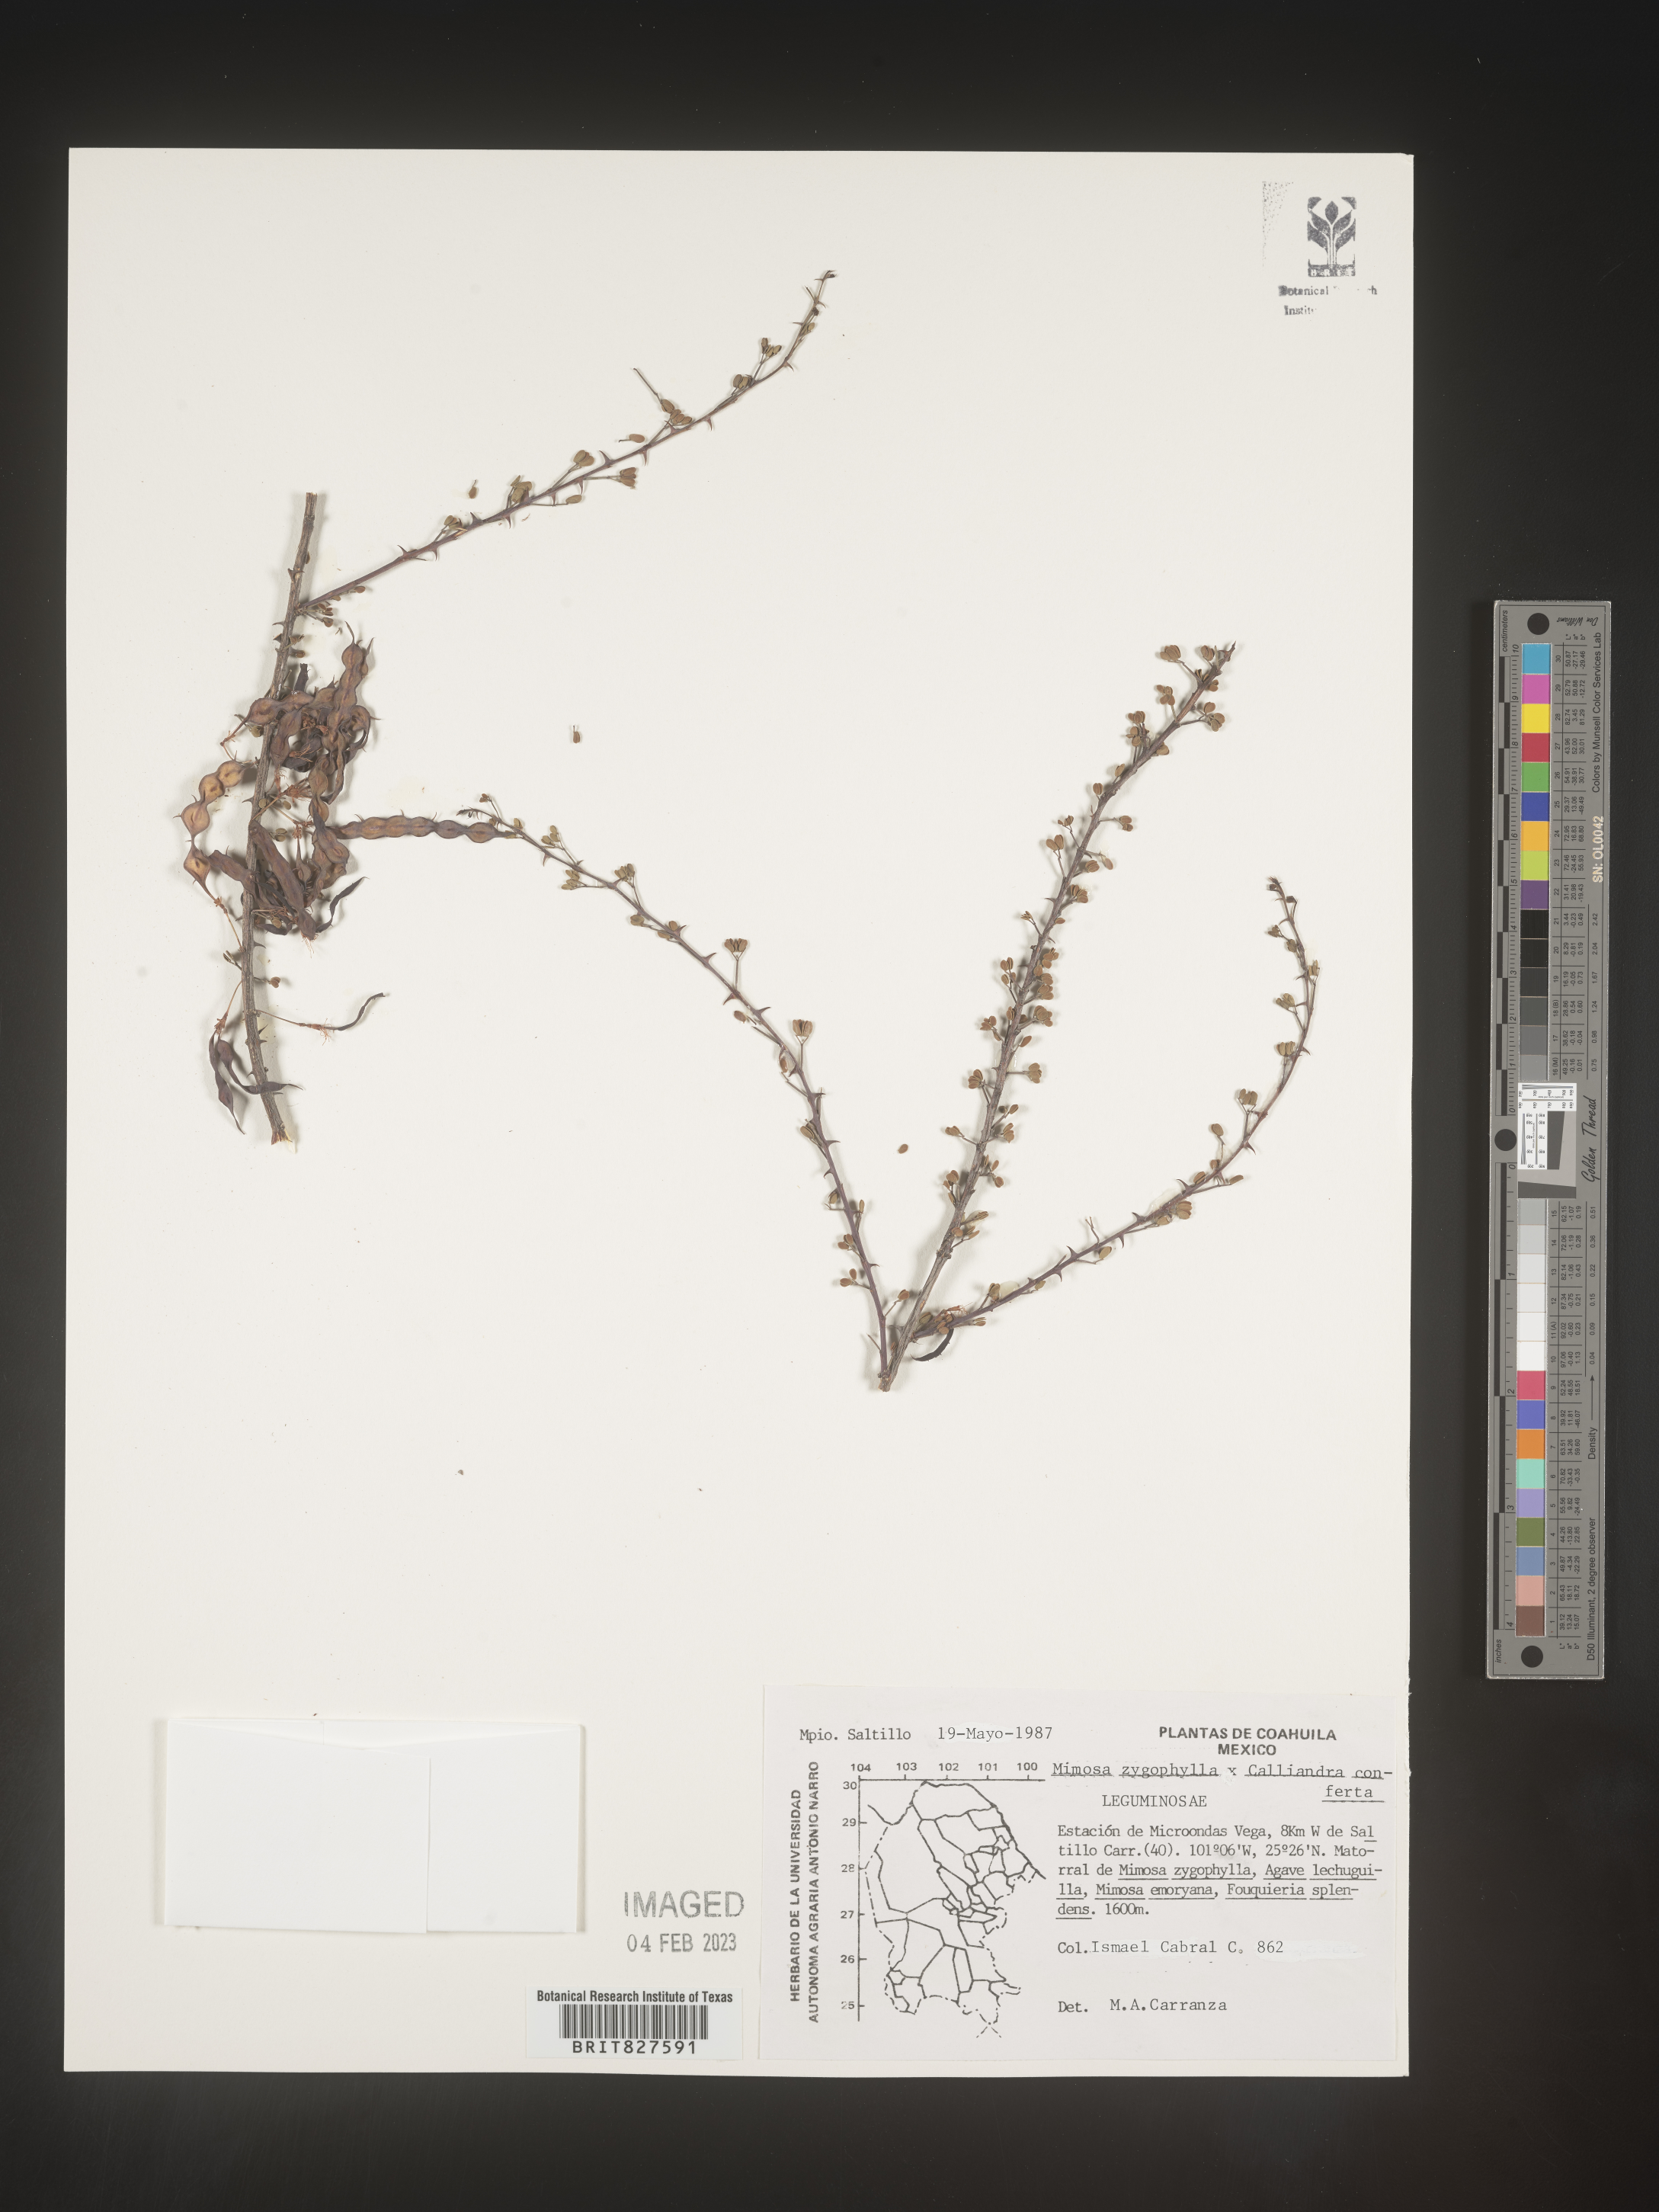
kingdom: Plantae
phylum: Tracheophyta
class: Magnoliopsida
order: Fabales
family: Fabaceae
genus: Mimosa
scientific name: Mimosa
